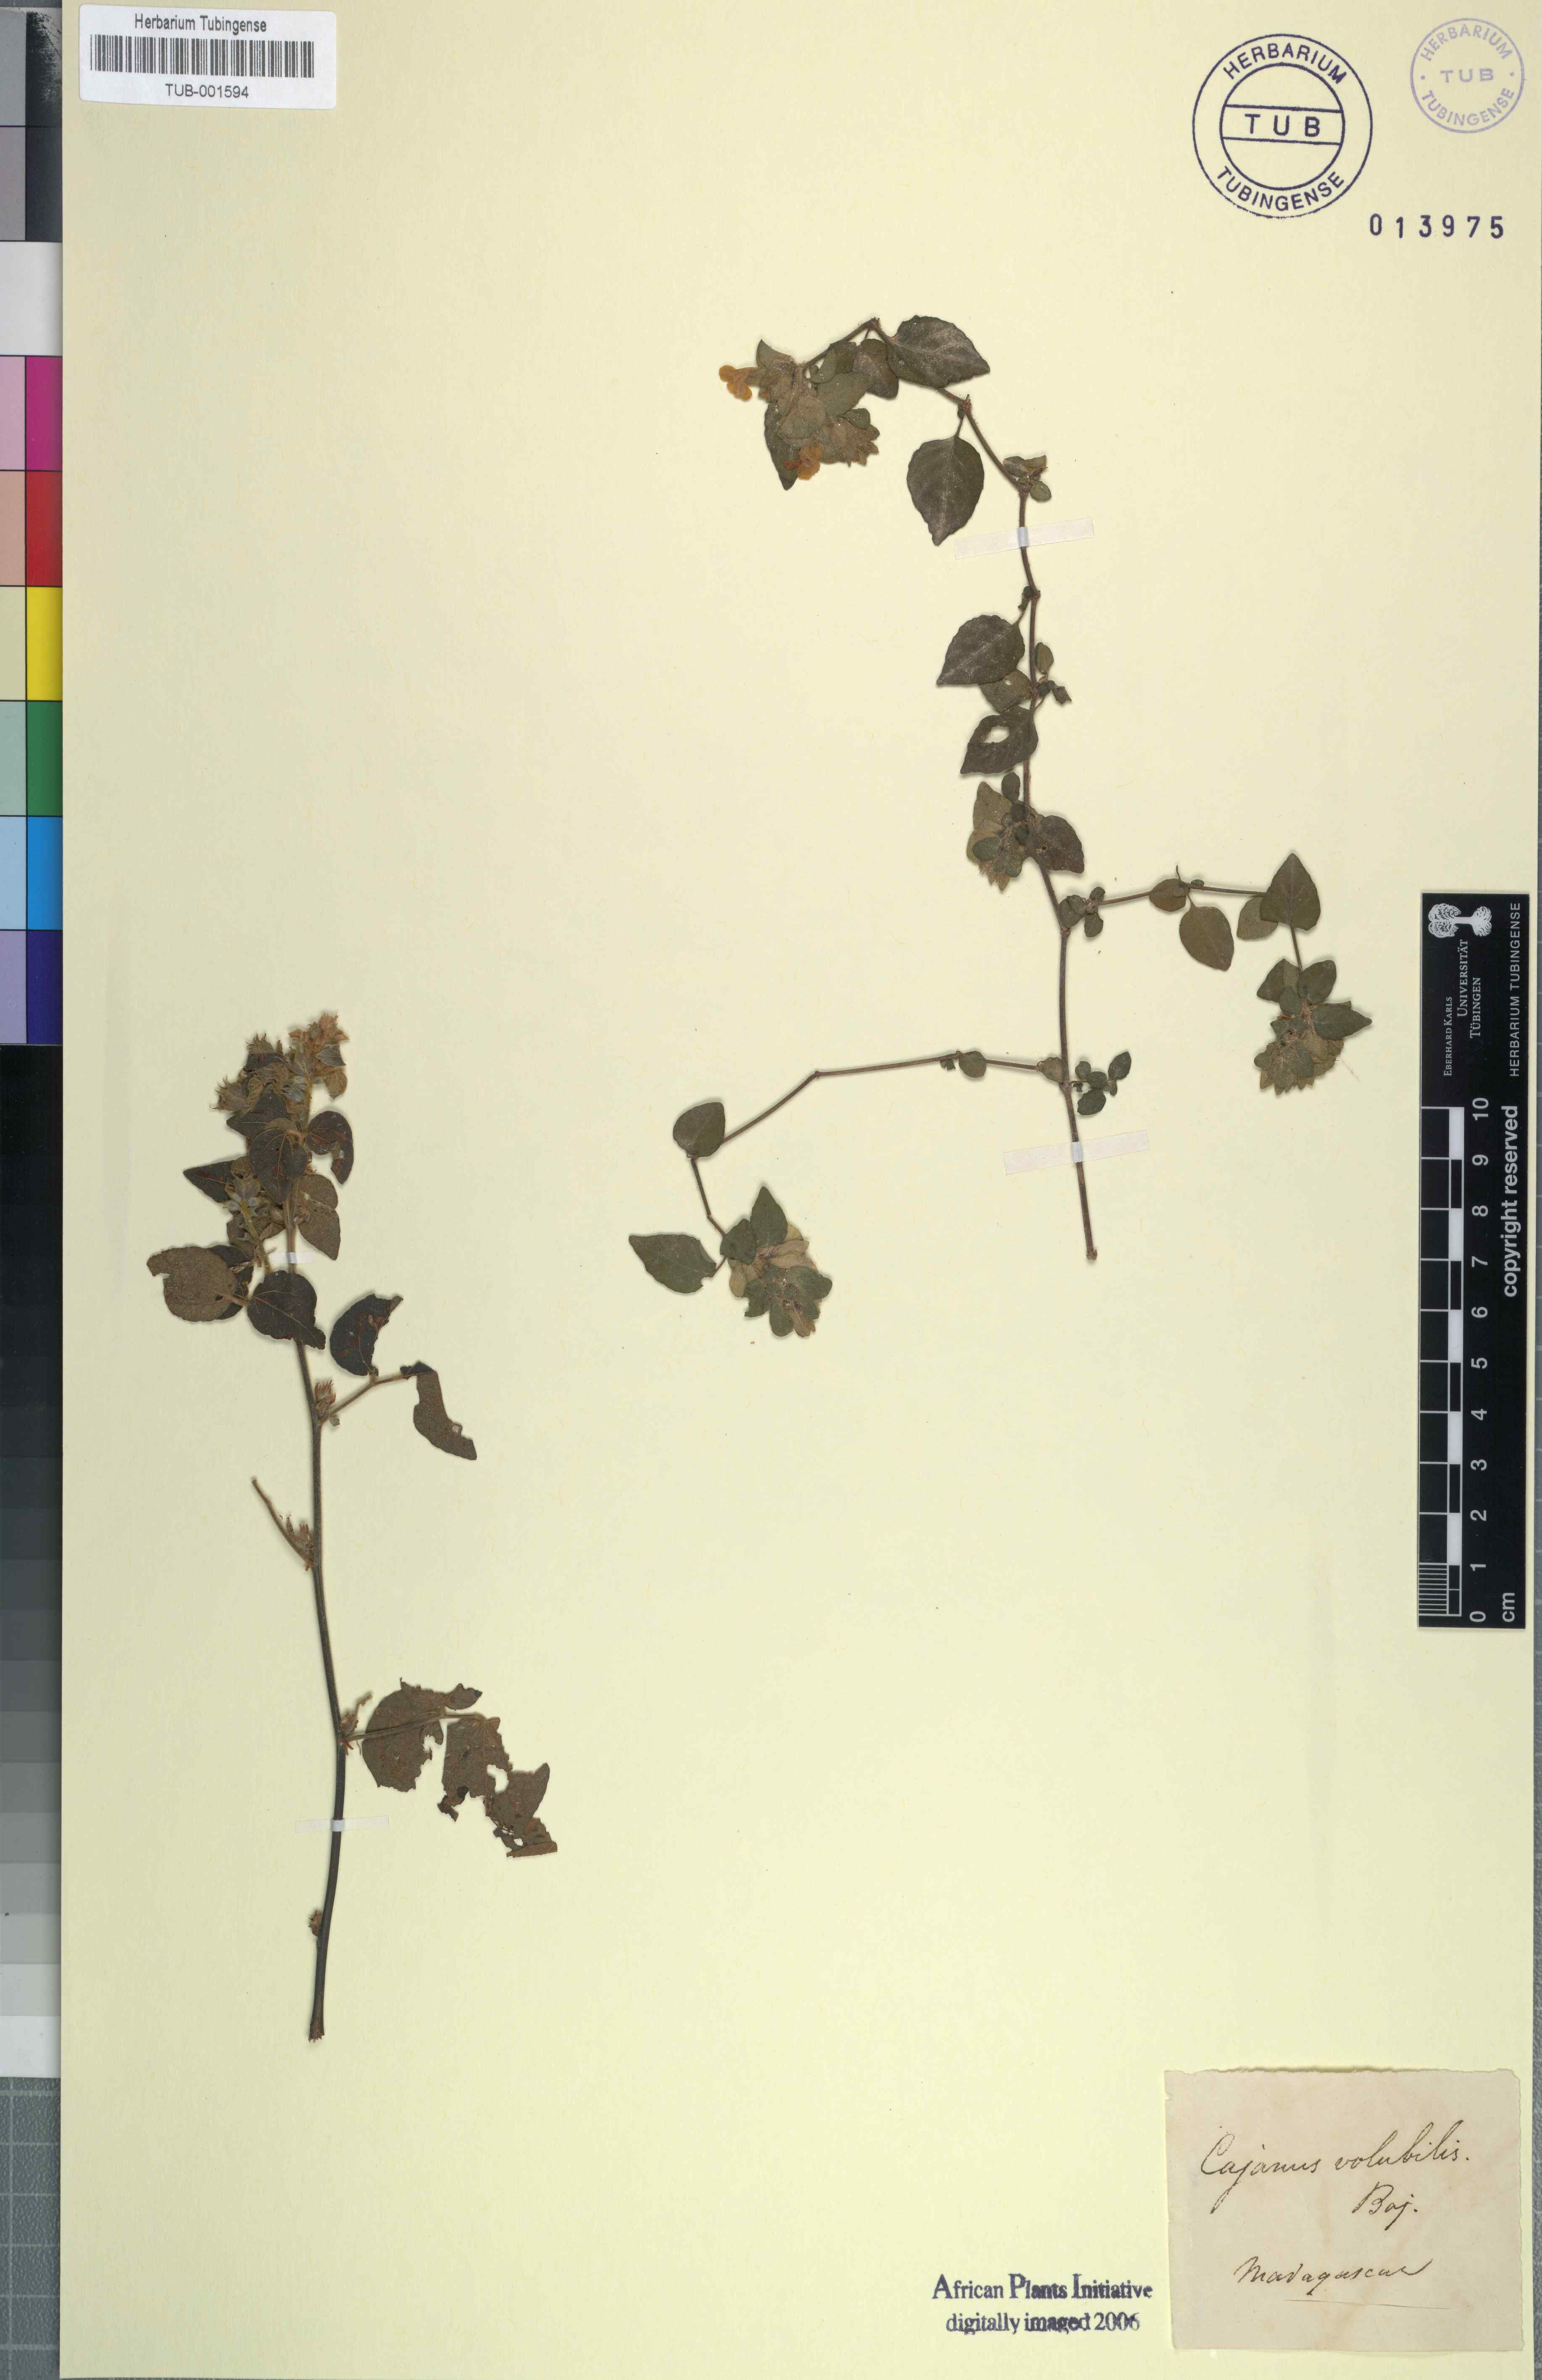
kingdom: Plantae
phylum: Tracheophyta
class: Magnoliopsida
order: Fabales
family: Fabaceae
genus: Cajanus
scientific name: Cajanus
